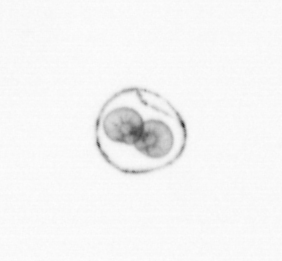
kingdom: Chromista
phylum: Myzozoa
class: Dinophyceae
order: Noctilucales
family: Noctilucaceae
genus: Noctiluca
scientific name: Noctiluca scintillans
